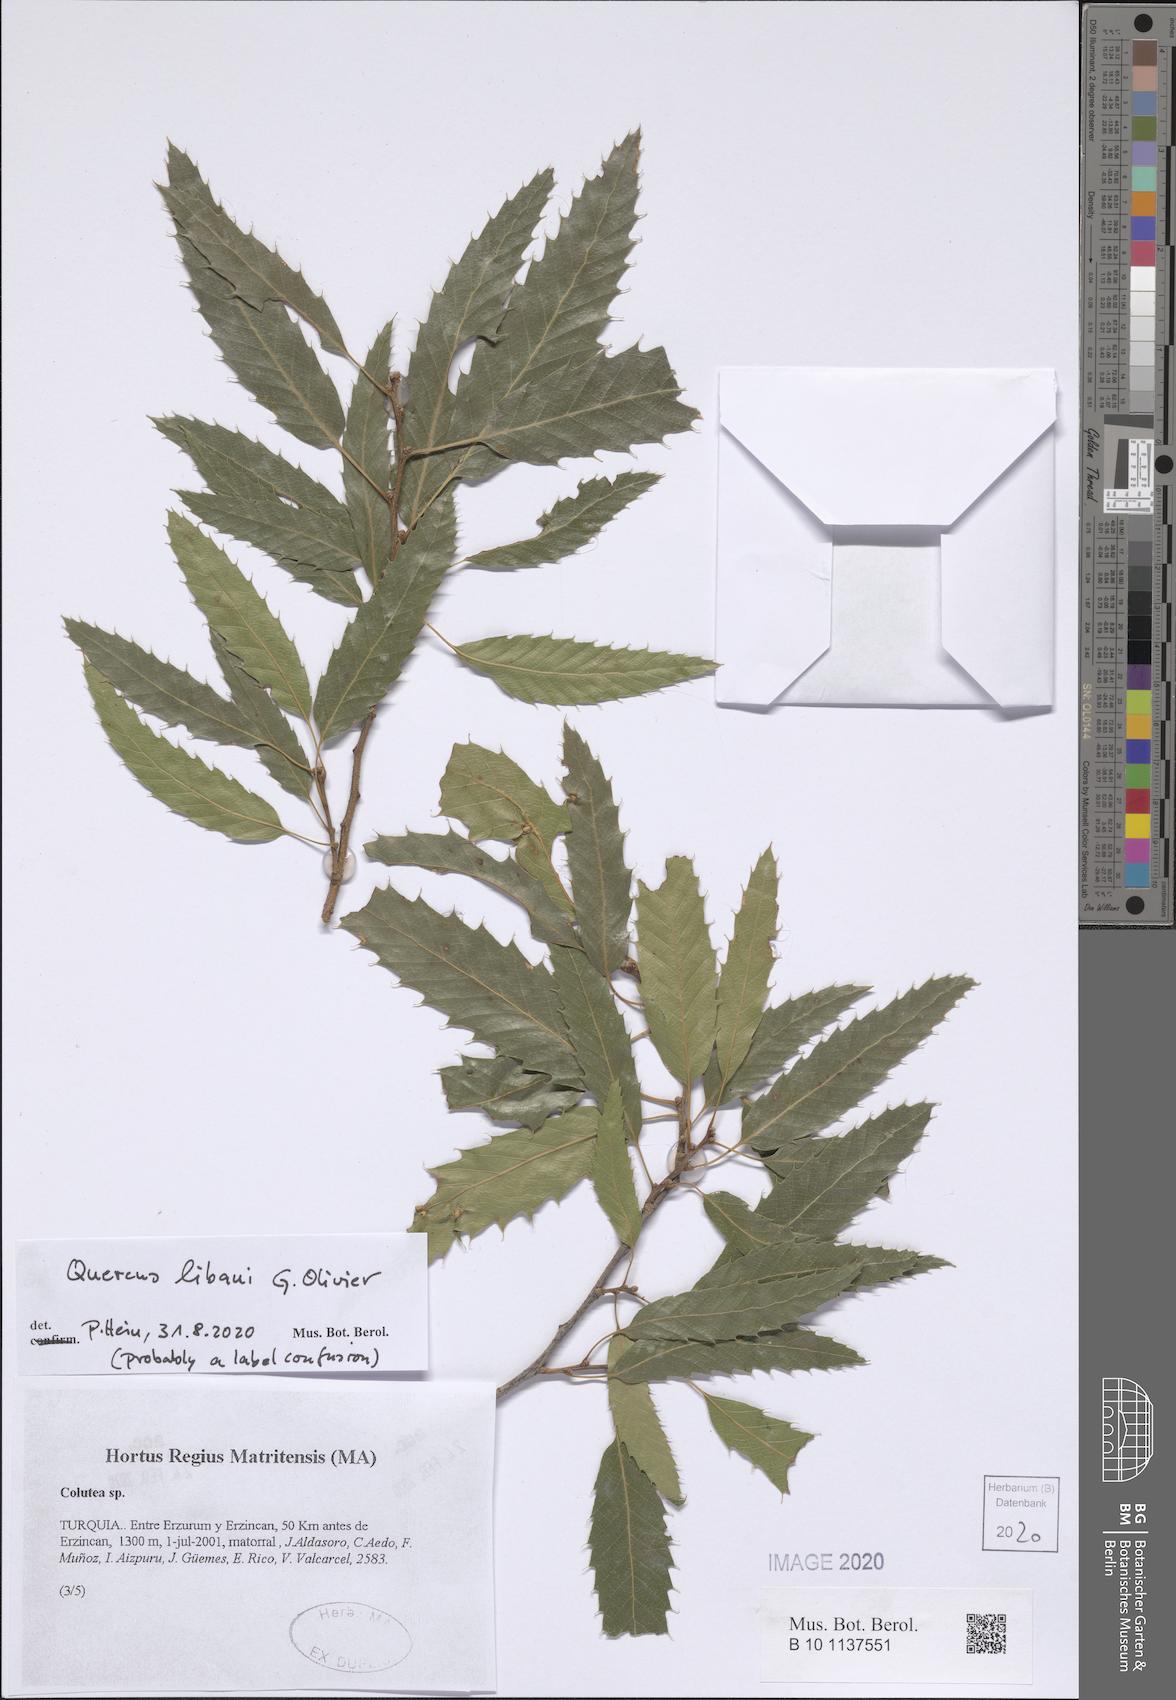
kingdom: Plantae
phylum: Tracheophyta
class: Magnoliopsida
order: Fagales
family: Fagaceae
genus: Quercus
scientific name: Quercus libani
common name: Lebanon oak
